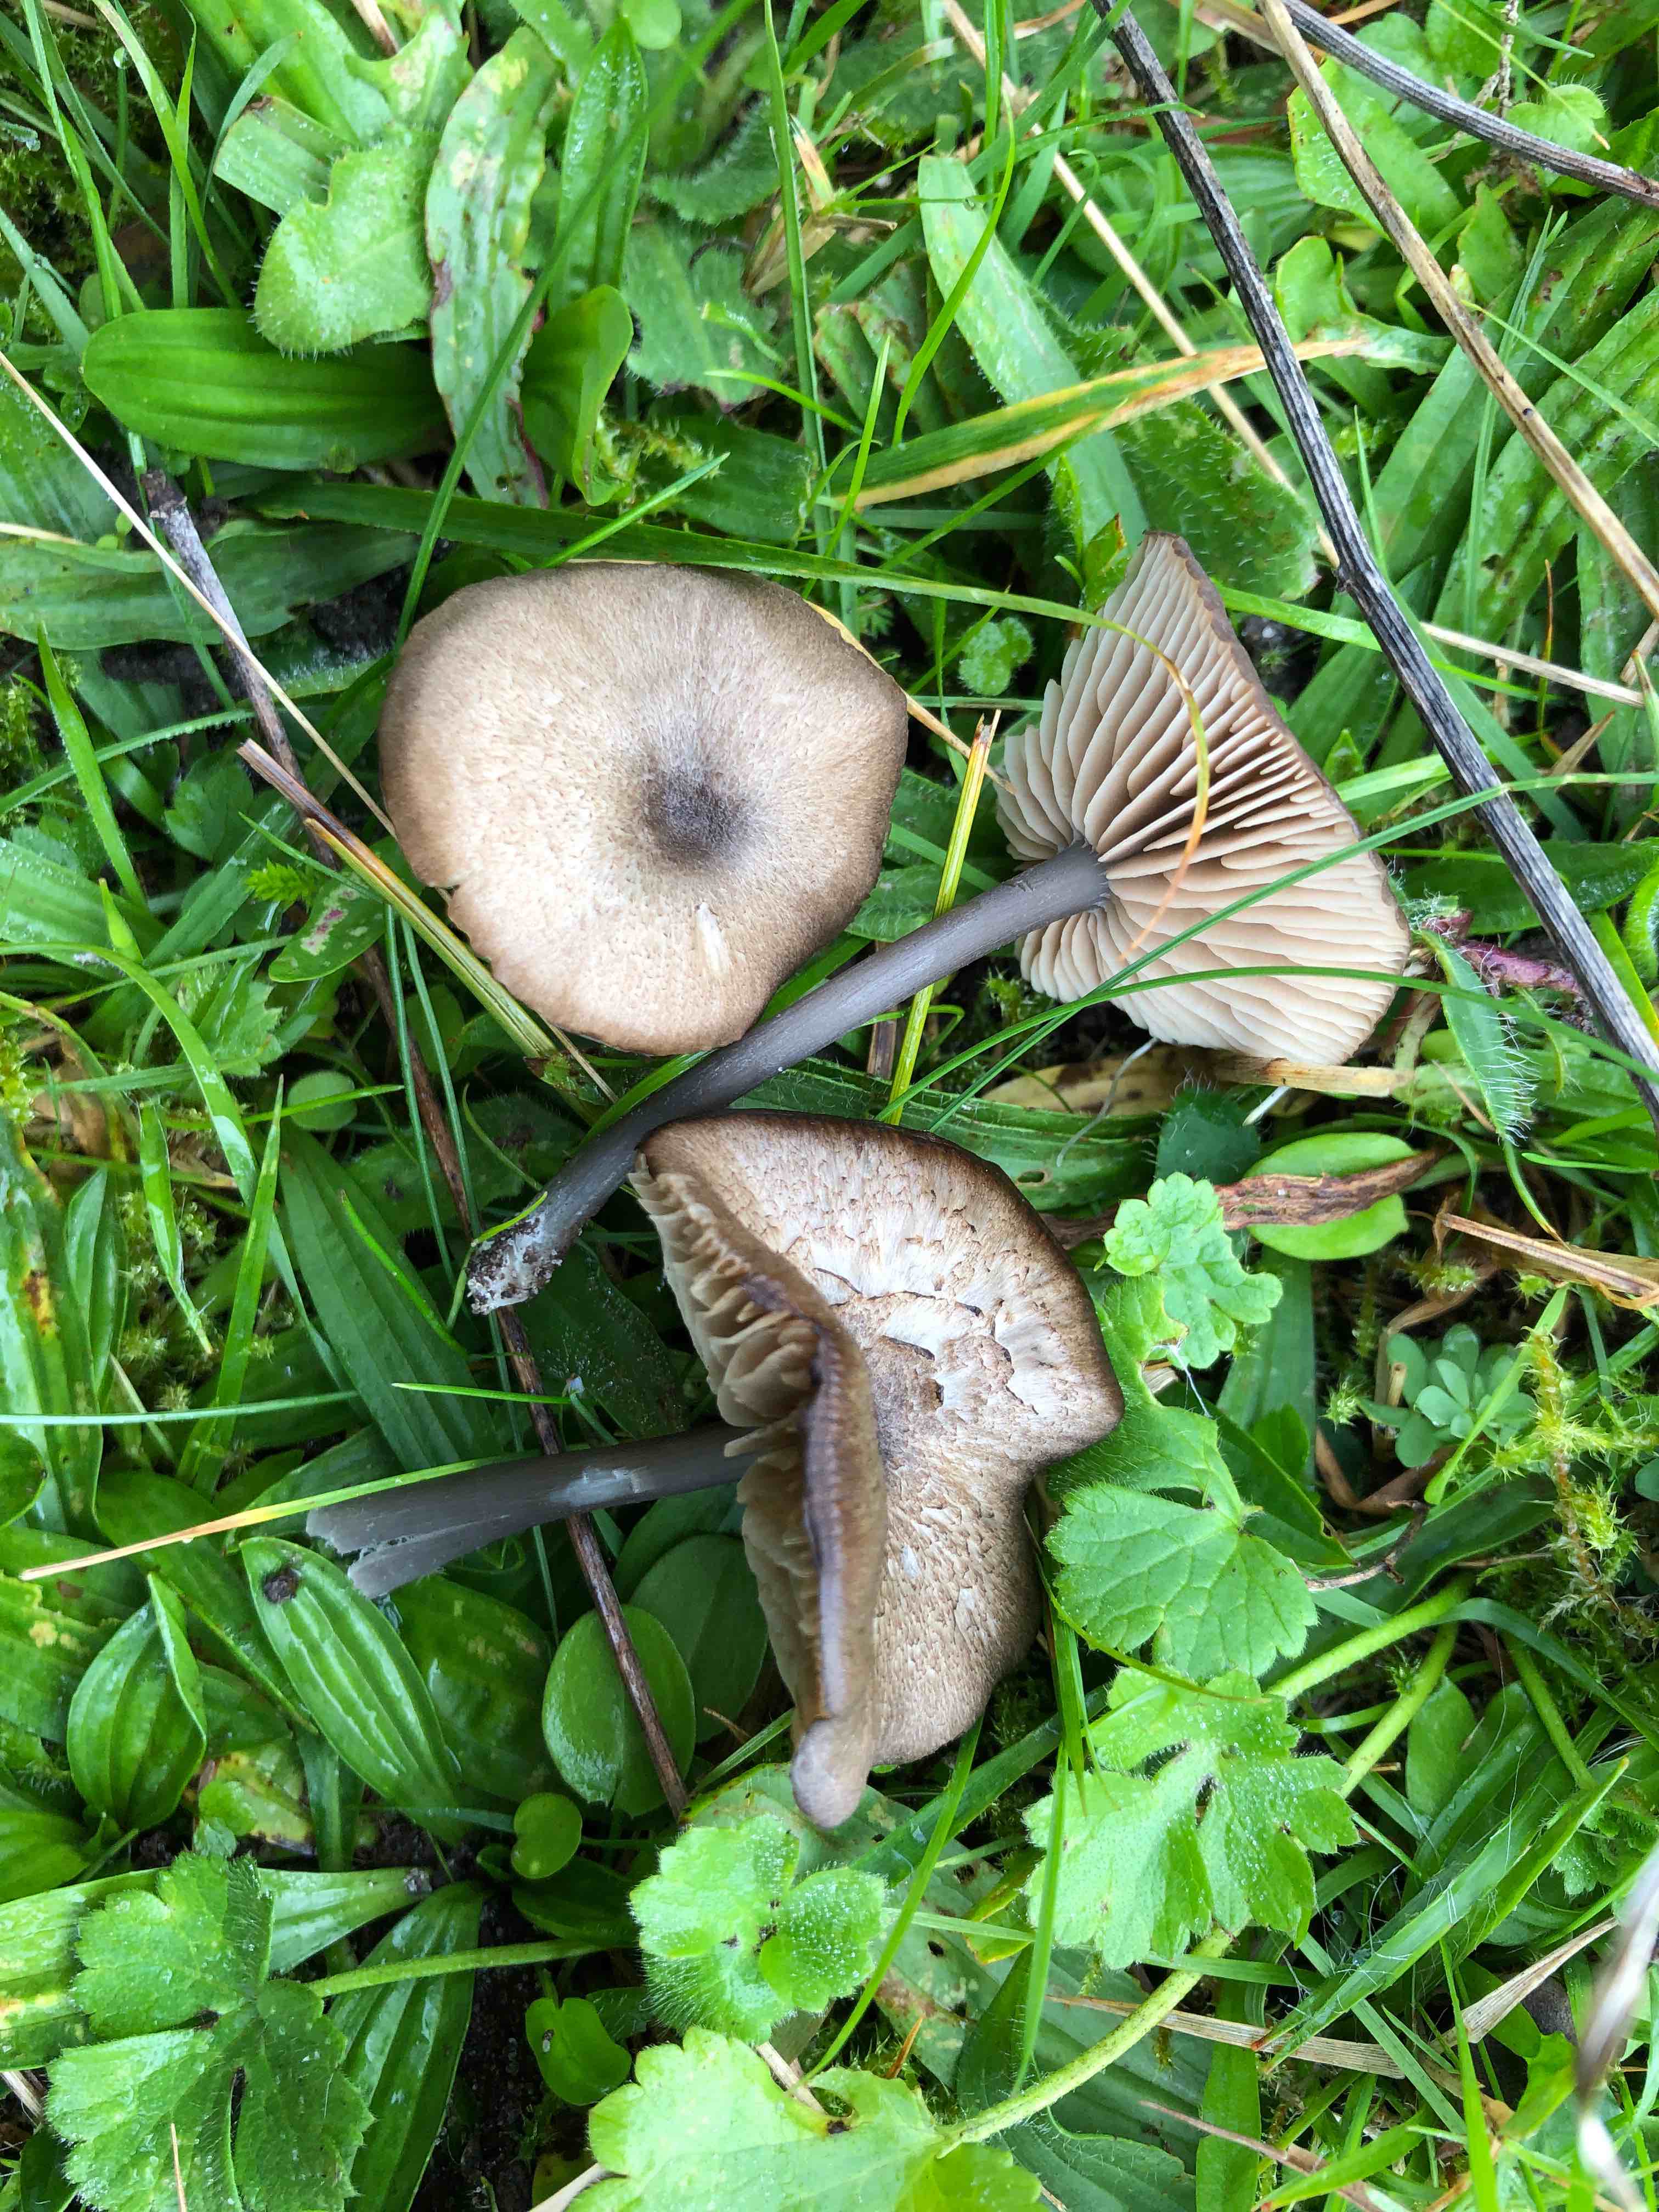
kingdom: Fungi
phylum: Basidiomycota
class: Agaricomycetes
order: Agaricales
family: Entolomataceae
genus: Entoloma
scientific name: Entoloma
